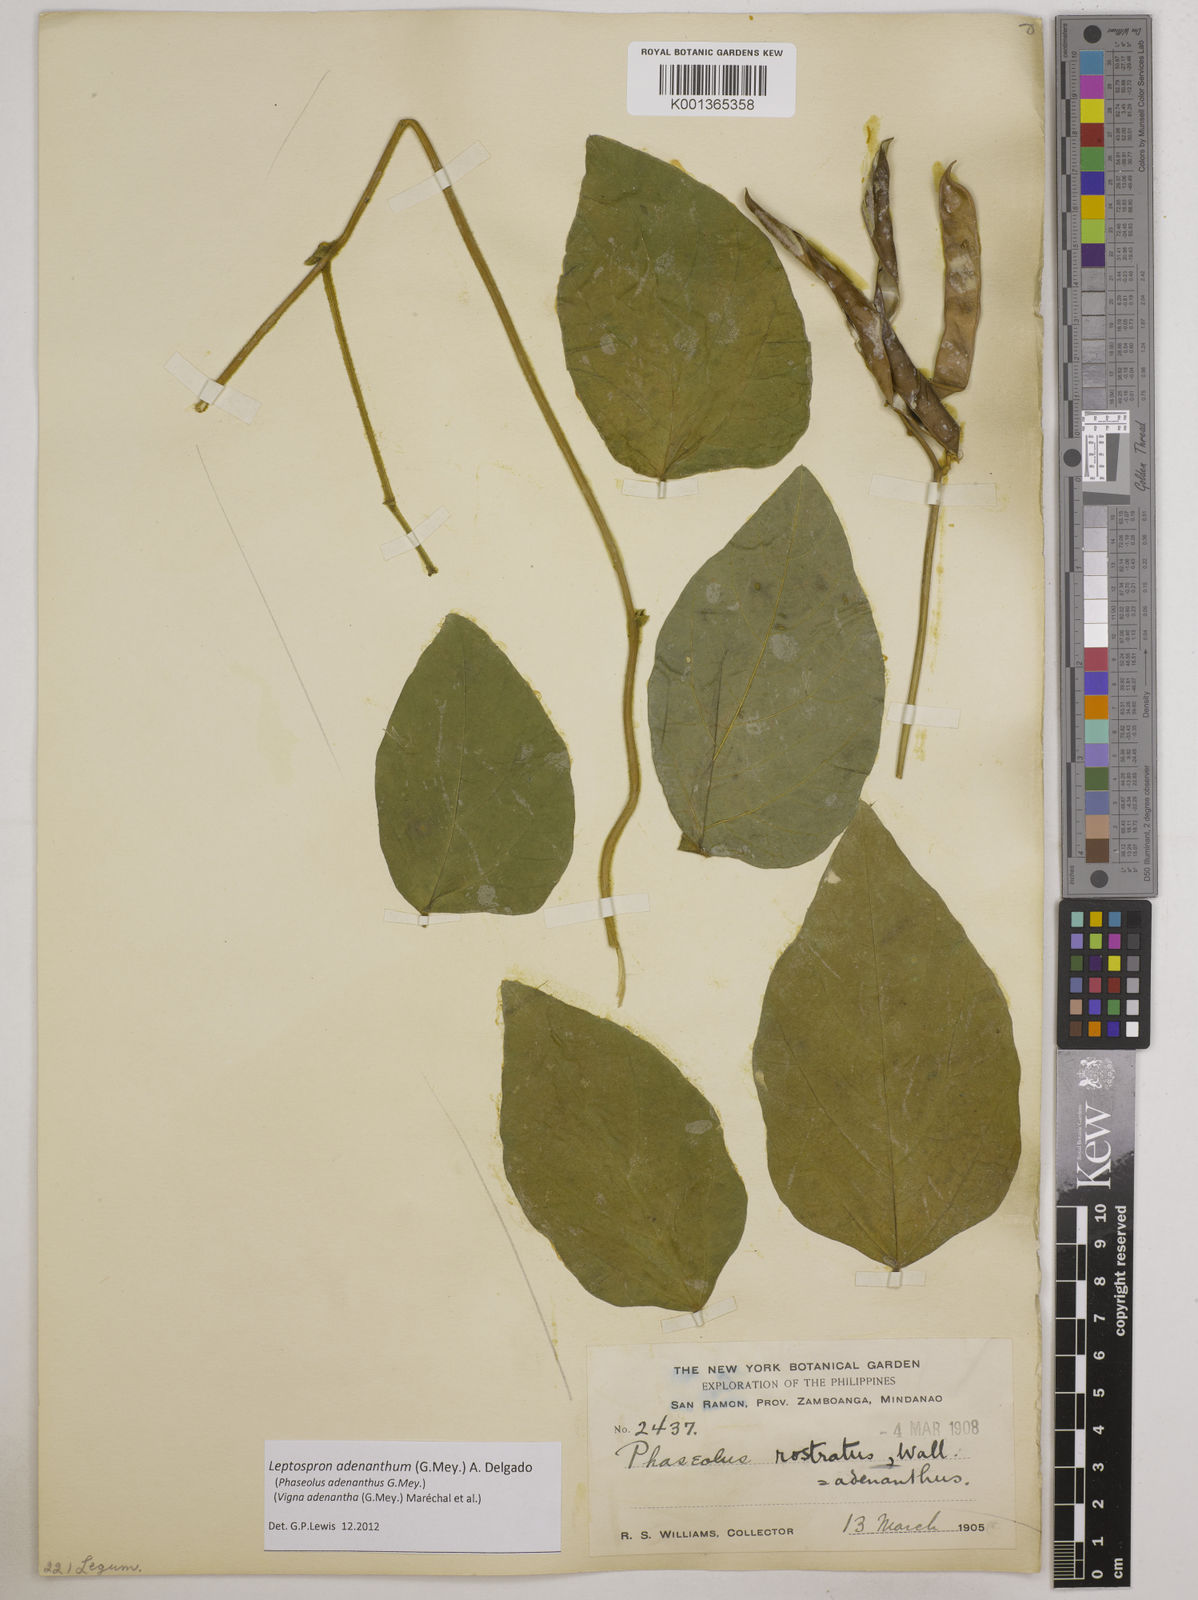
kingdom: Plantae
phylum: Tracheophyta
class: Magnoliopsida
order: Fabales
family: Fabaceae
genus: Leptospron
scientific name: Leptospron adenanthum
